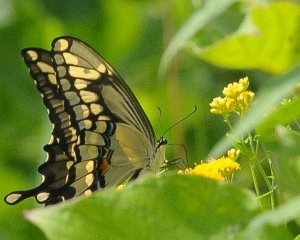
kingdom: Animalia
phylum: Arthropoda
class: Insecta
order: Lepidoptera
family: Papilionidae
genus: Papilio
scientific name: Papilio cresphontes
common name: Eastern Giant Swallowtail
